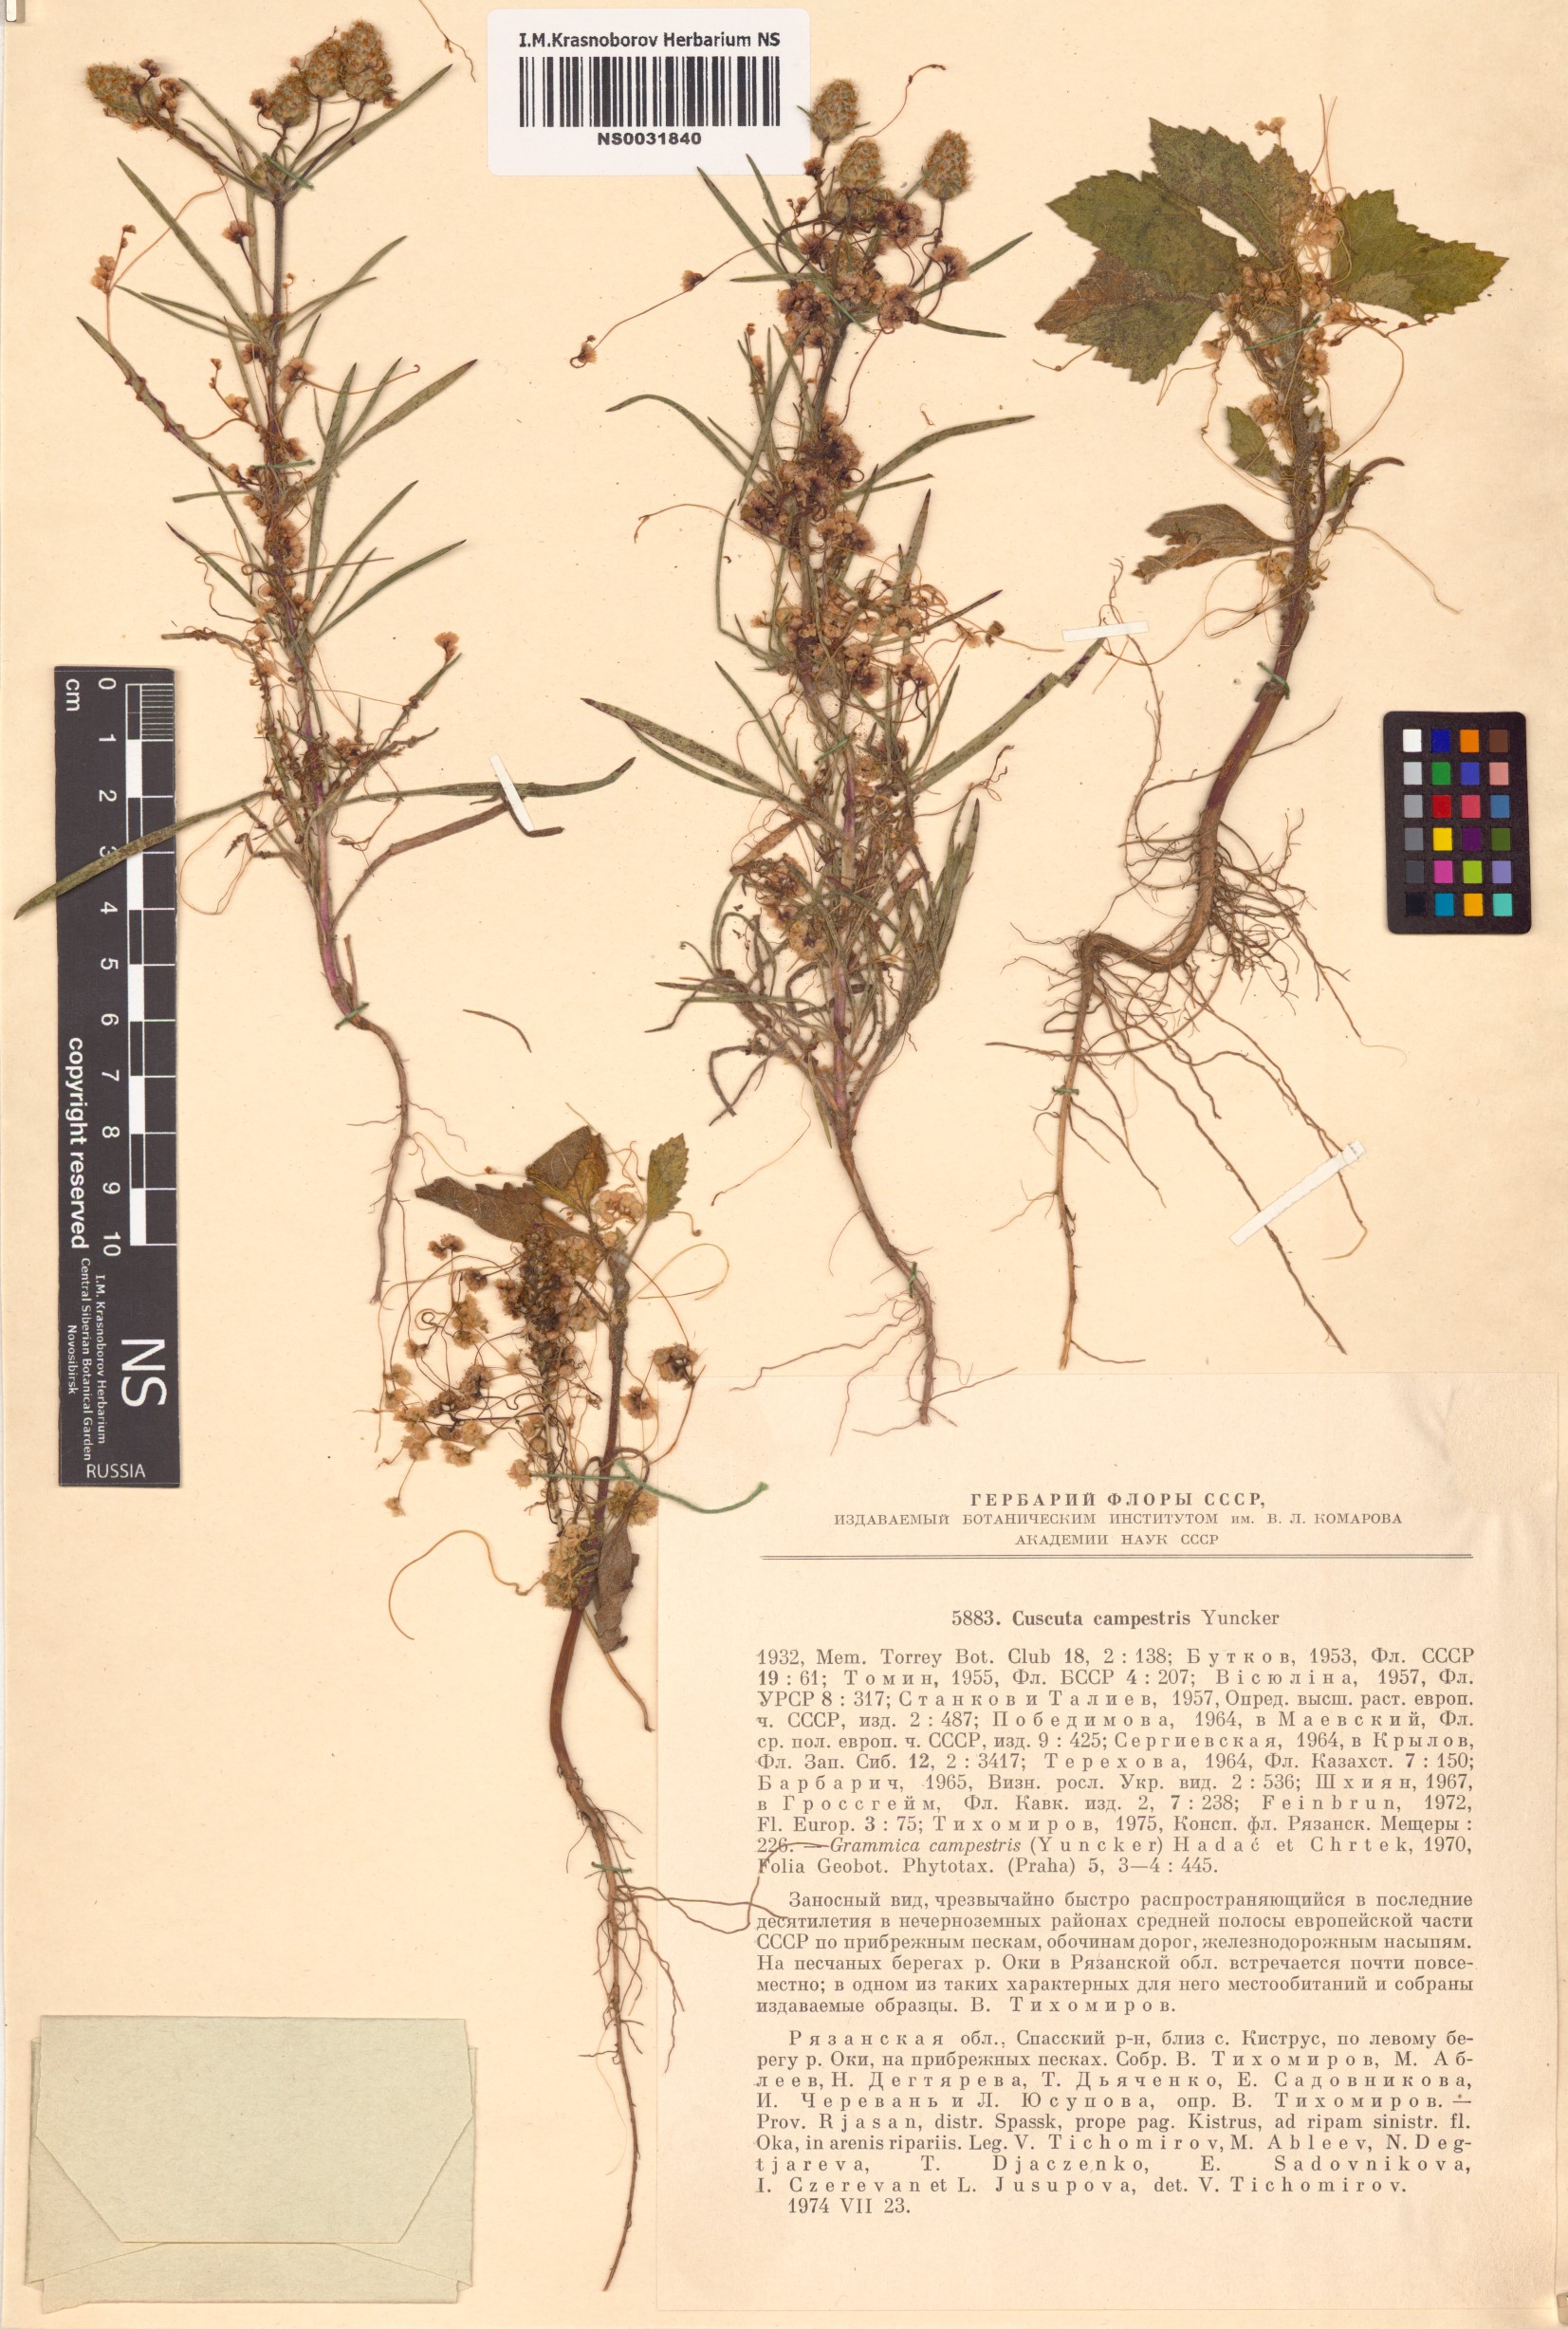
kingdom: Plantae
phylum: Tracheophyta
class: Magnoliopsida
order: Solanales
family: Convolvulaceae
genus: Cuscuta
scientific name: Cuscuta campestris
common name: Yellow dodder
